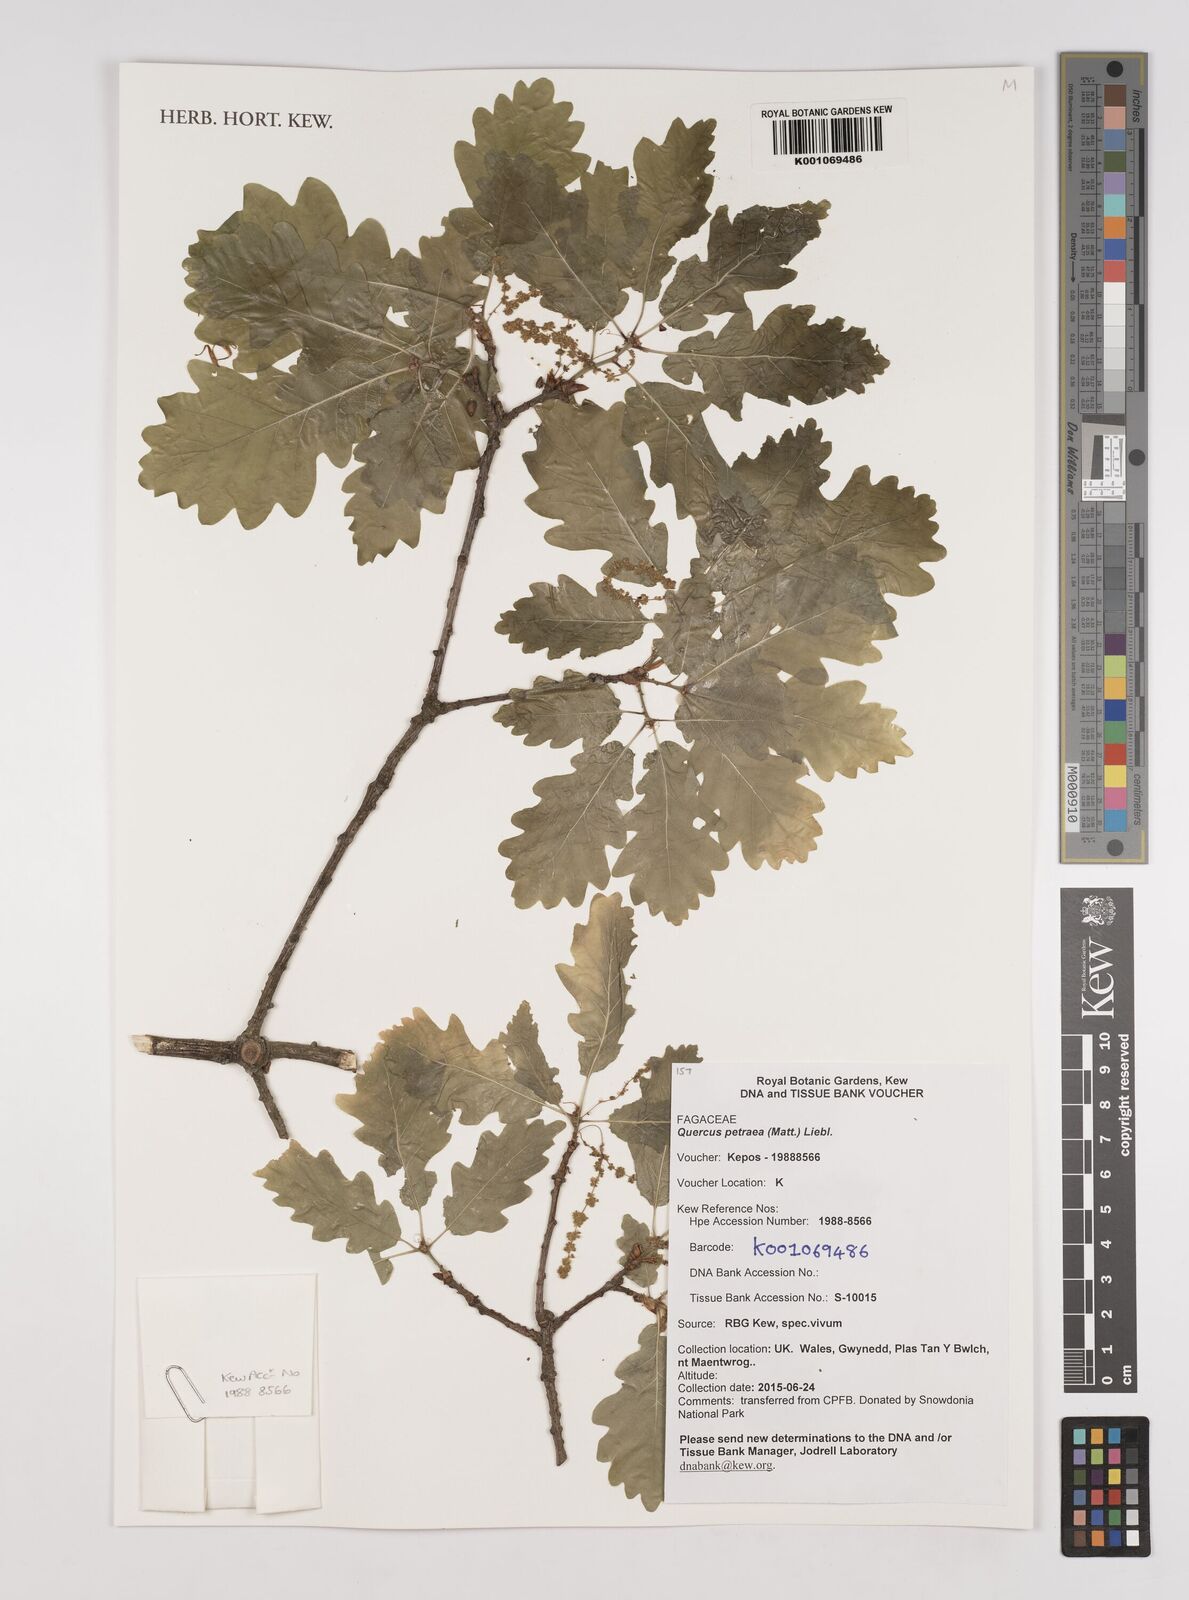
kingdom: Plantae
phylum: Tracheophyta
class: Magnoliopsida
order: Fagales
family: Fagaceae
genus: Quercus
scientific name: Quercus petraea
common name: Sessile oak
